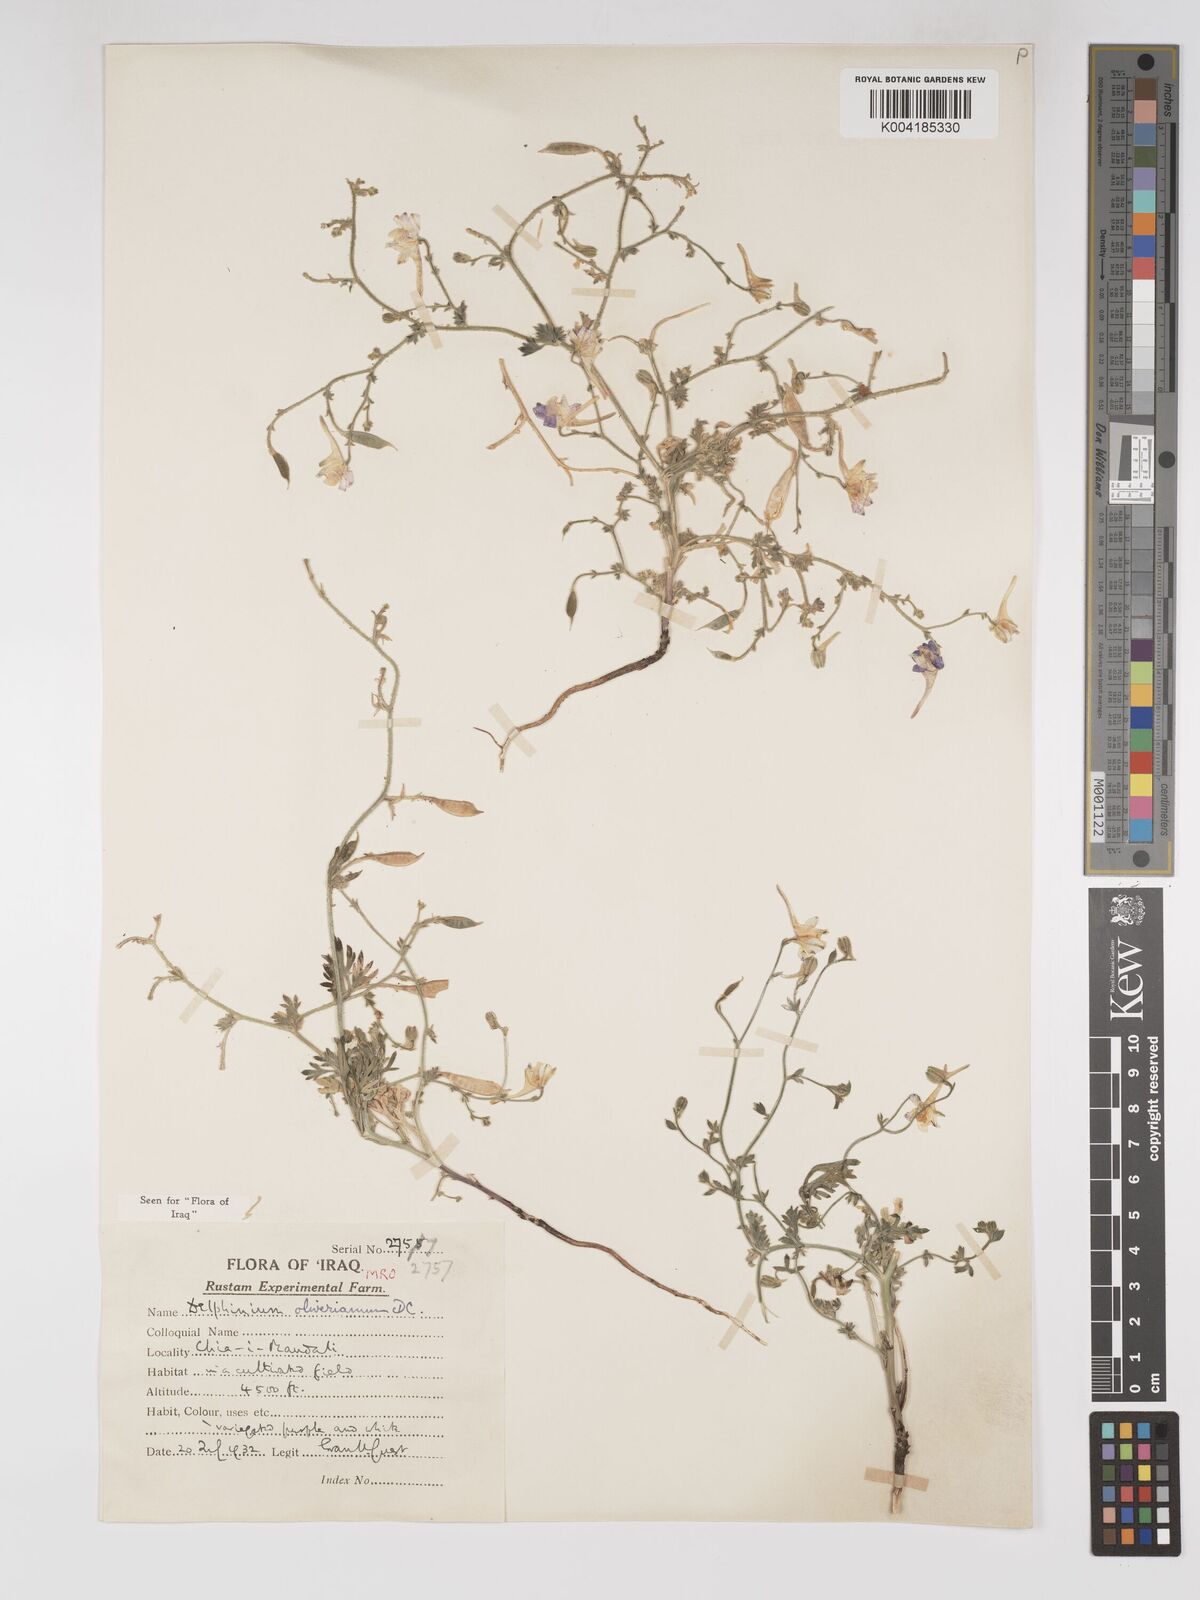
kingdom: Plantae
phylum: Tracheophyta
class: Magnoliopsida
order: Ranunculales
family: Ranunculaceae
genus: Delphinium
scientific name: Delphinium oliverianum
